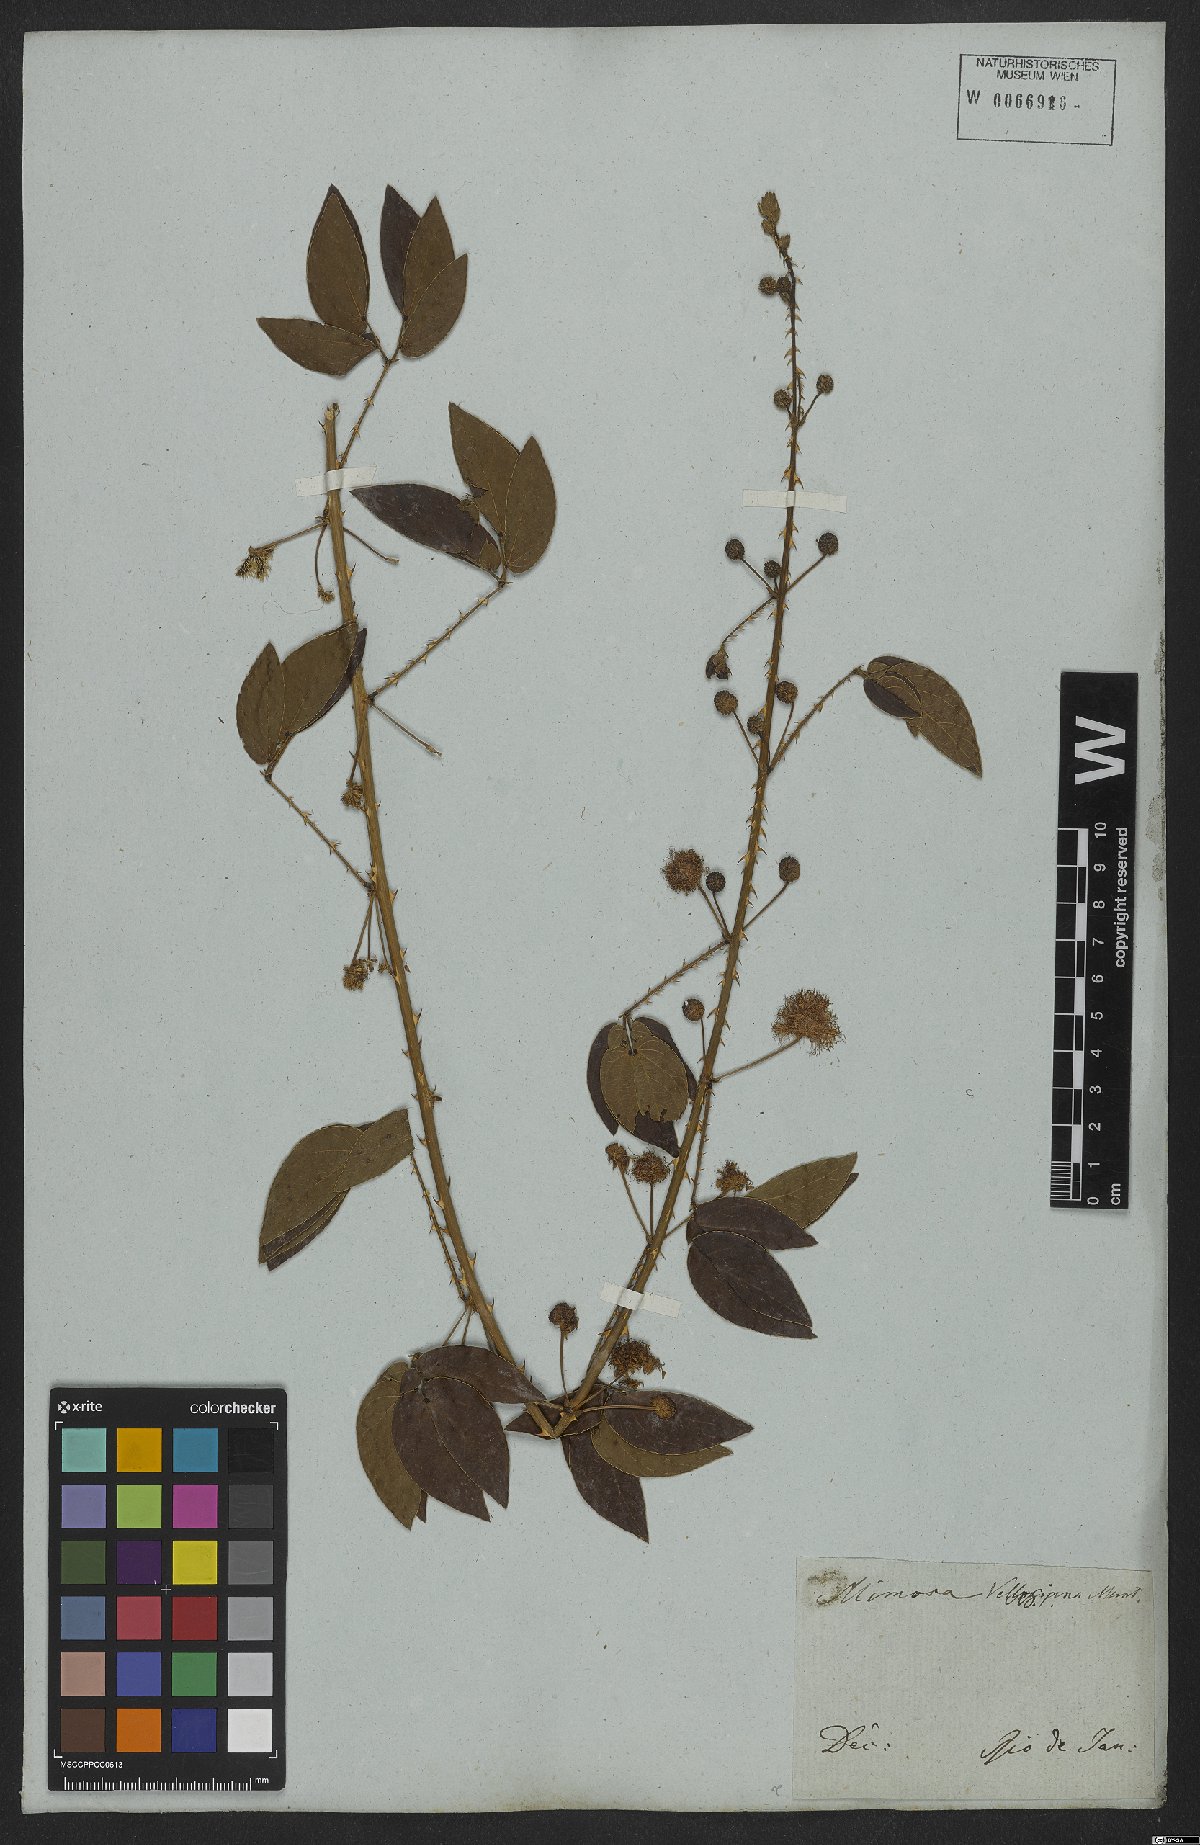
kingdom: Plantae
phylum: Tracheophyta
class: Magnoliopsida
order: Fabales
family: Fabaceae
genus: Mimosa
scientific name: Mimosa velloziana
